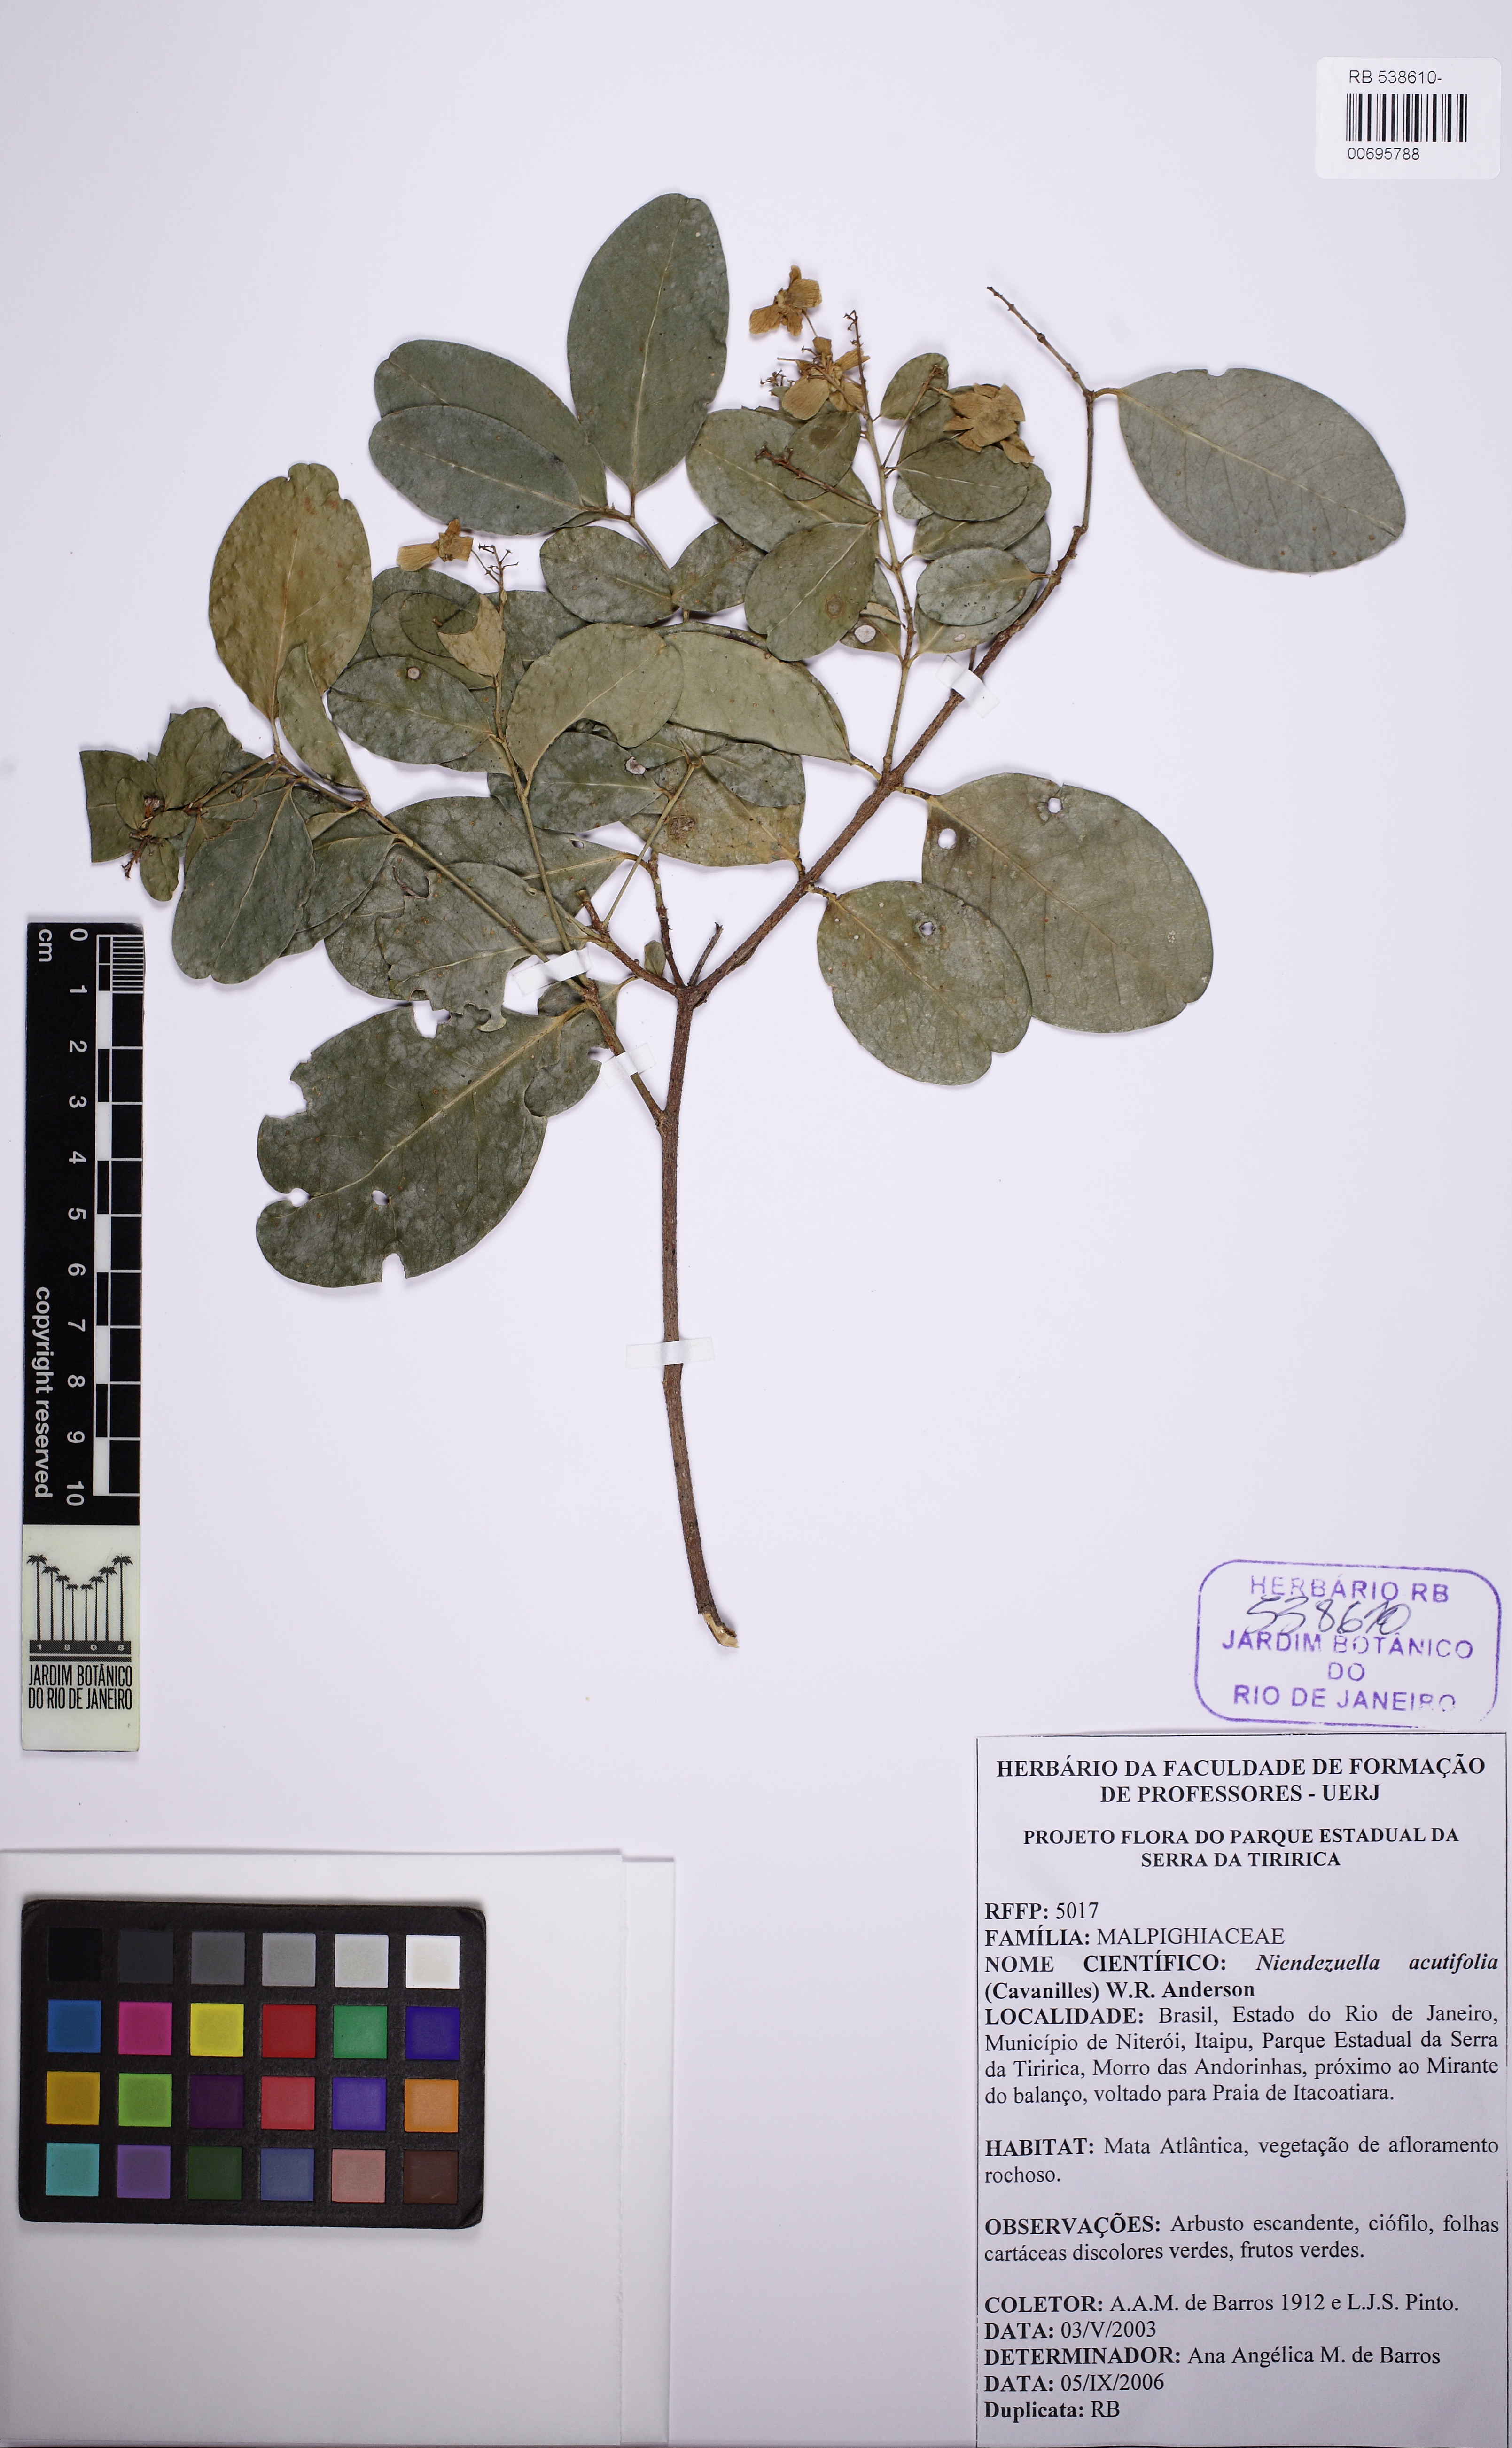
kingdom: Plantae
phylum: Tracheophyta
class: Magnoliopsida
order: Malpighiales
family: Malpighiaceae
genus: Niedenzuella
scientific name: Niedenzuella acutifolia
